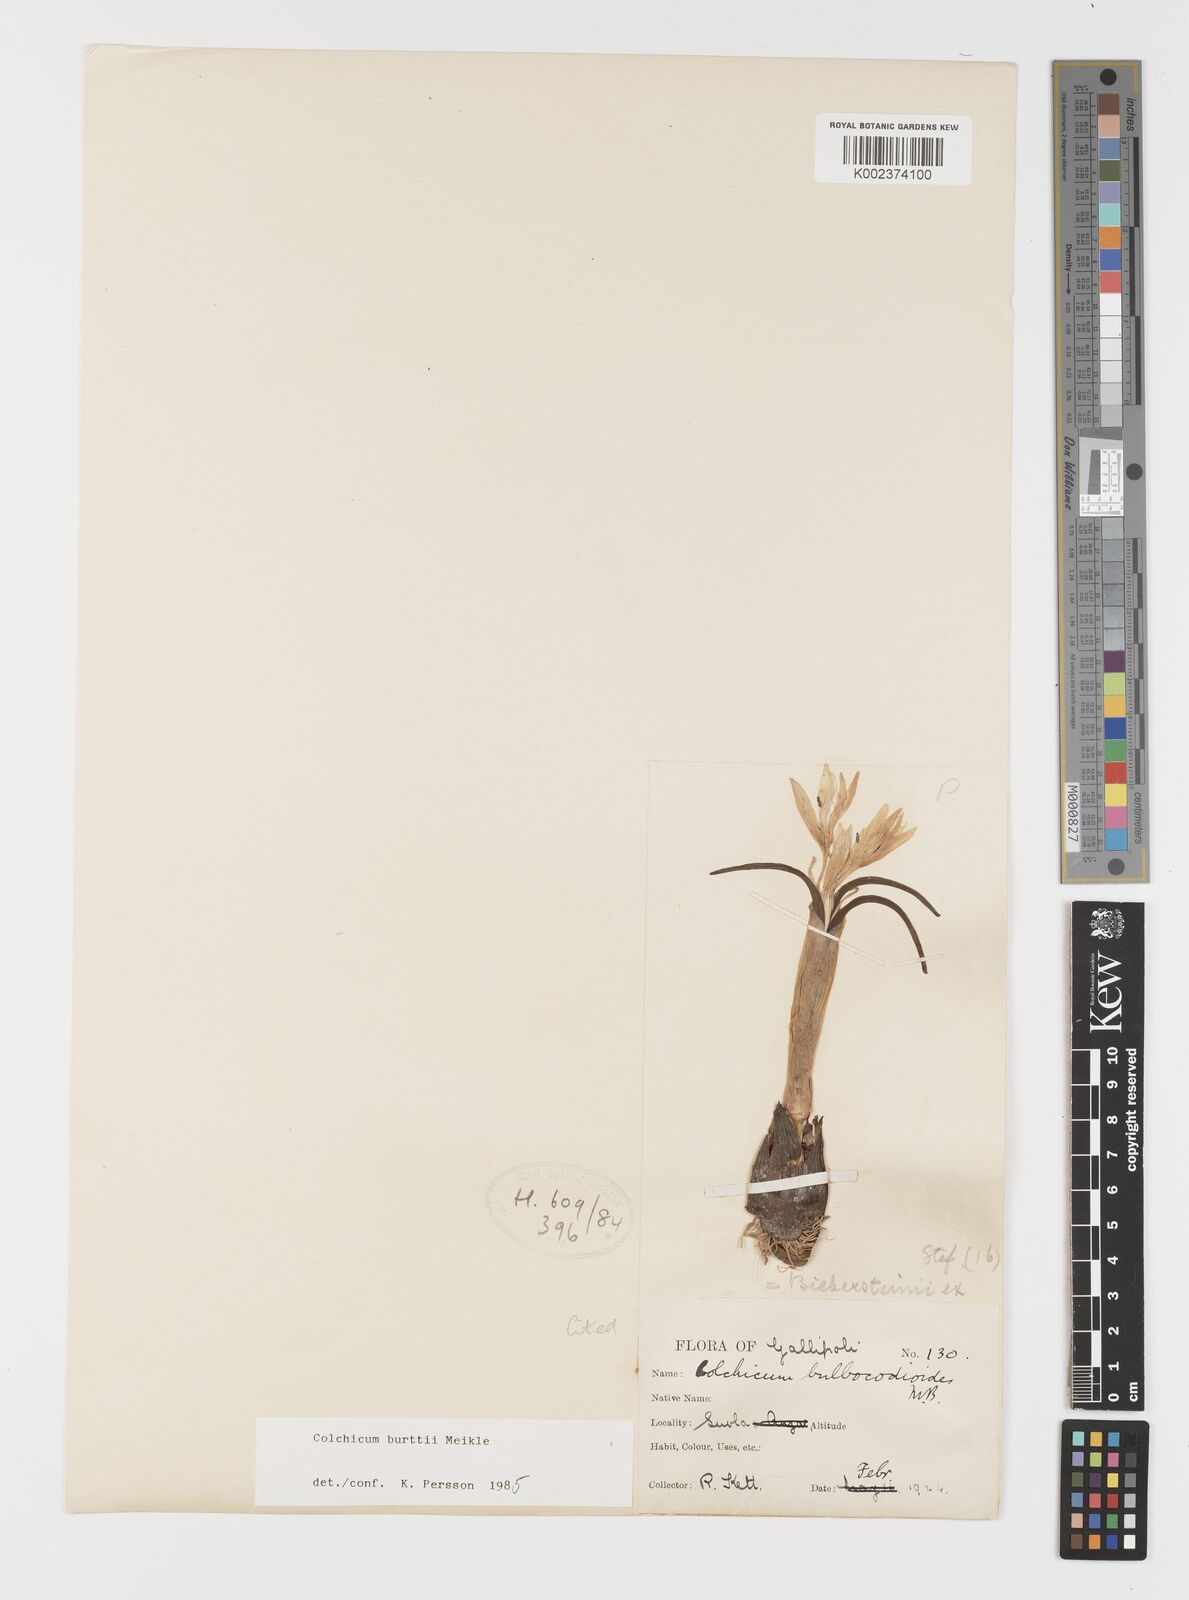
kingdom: Plantae
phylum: Tracheophyta
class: Liliopsida
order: Liliales
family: Colchicaceae
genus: Colchicum
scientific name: Colchicum burttii
